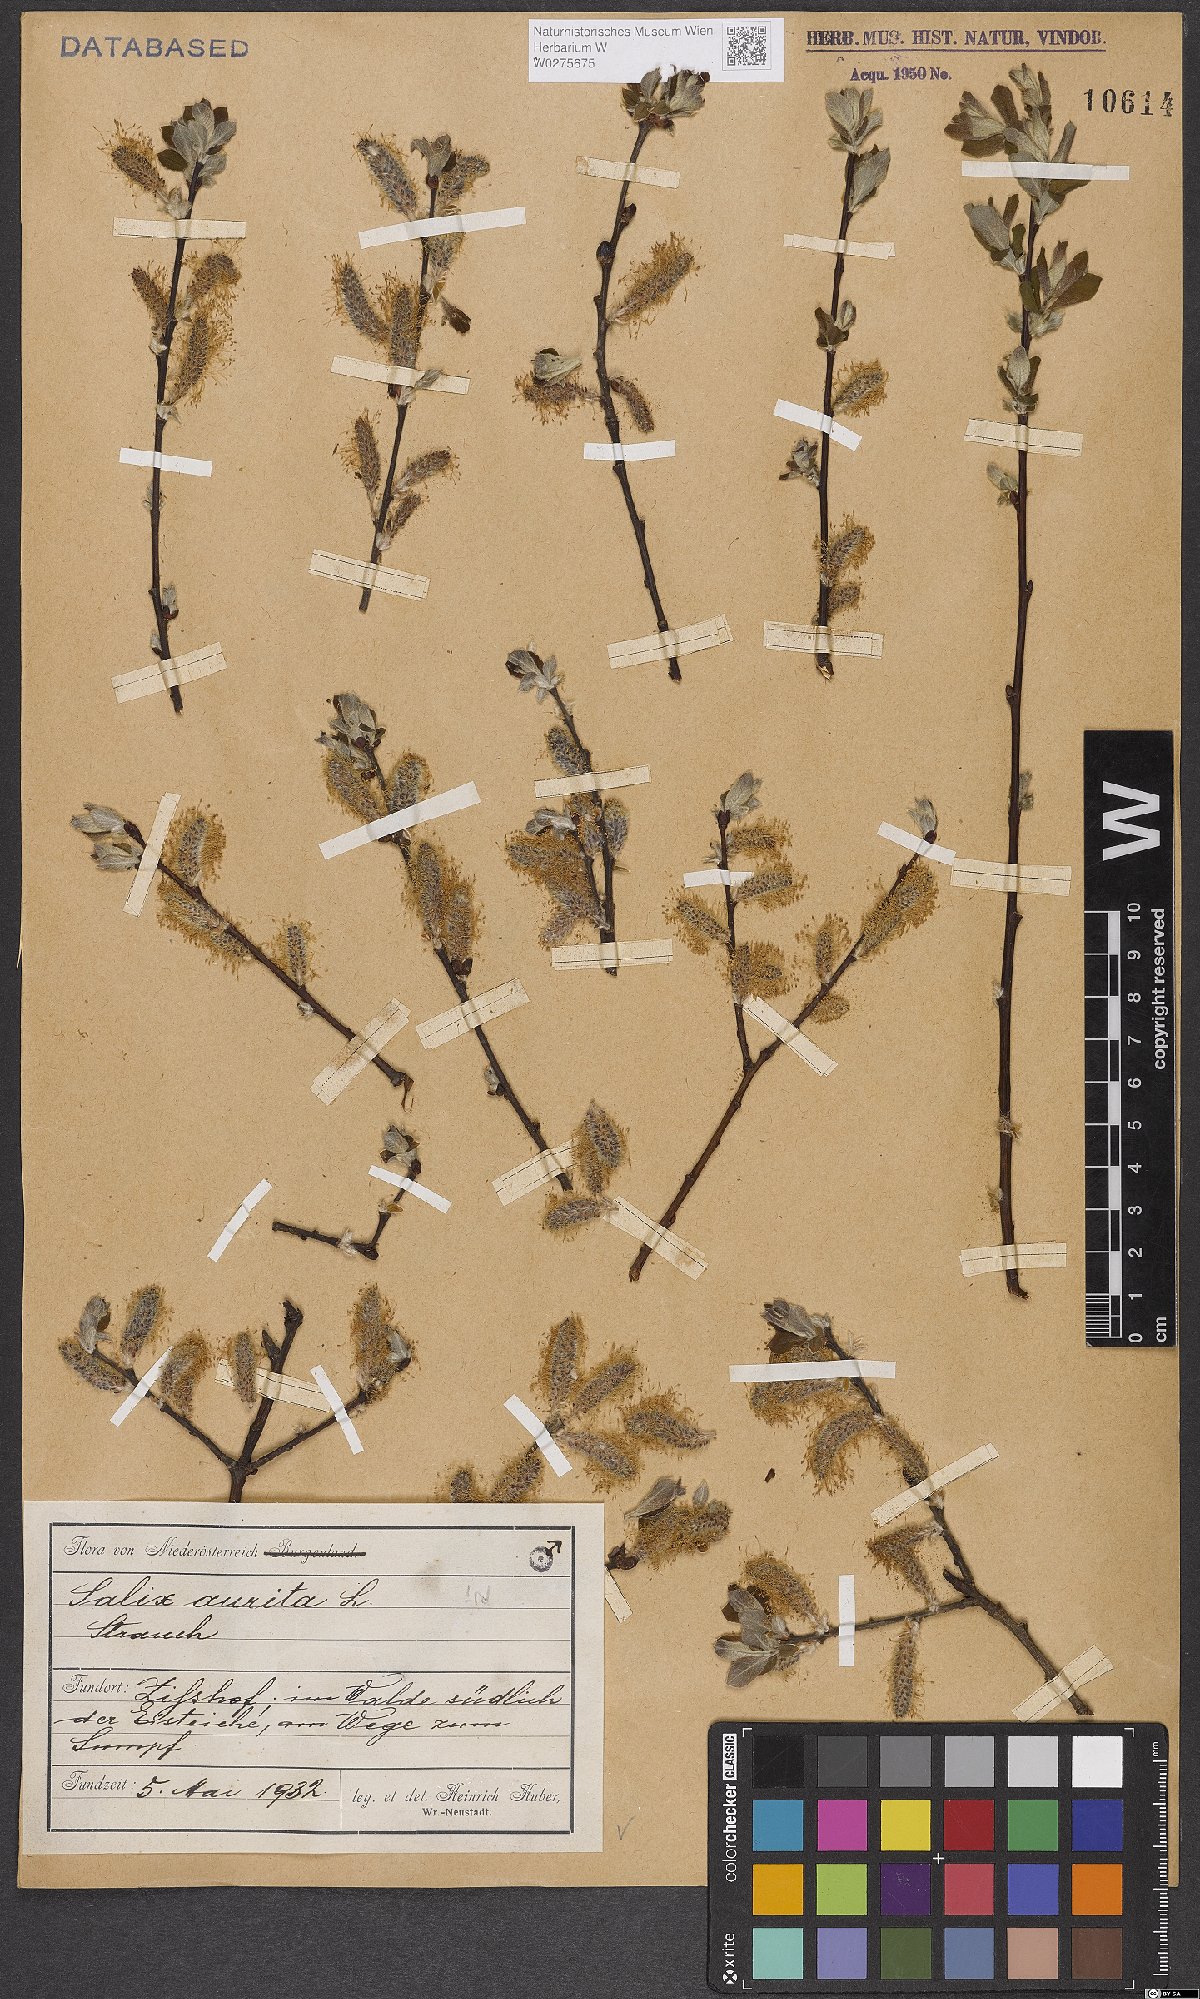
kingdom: Plantae
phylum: Tracheophyta
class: Magnoliopsida
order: Malpighiales
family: Salicaceae
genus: Salix
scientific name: Salix aurita
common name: Eared willow
